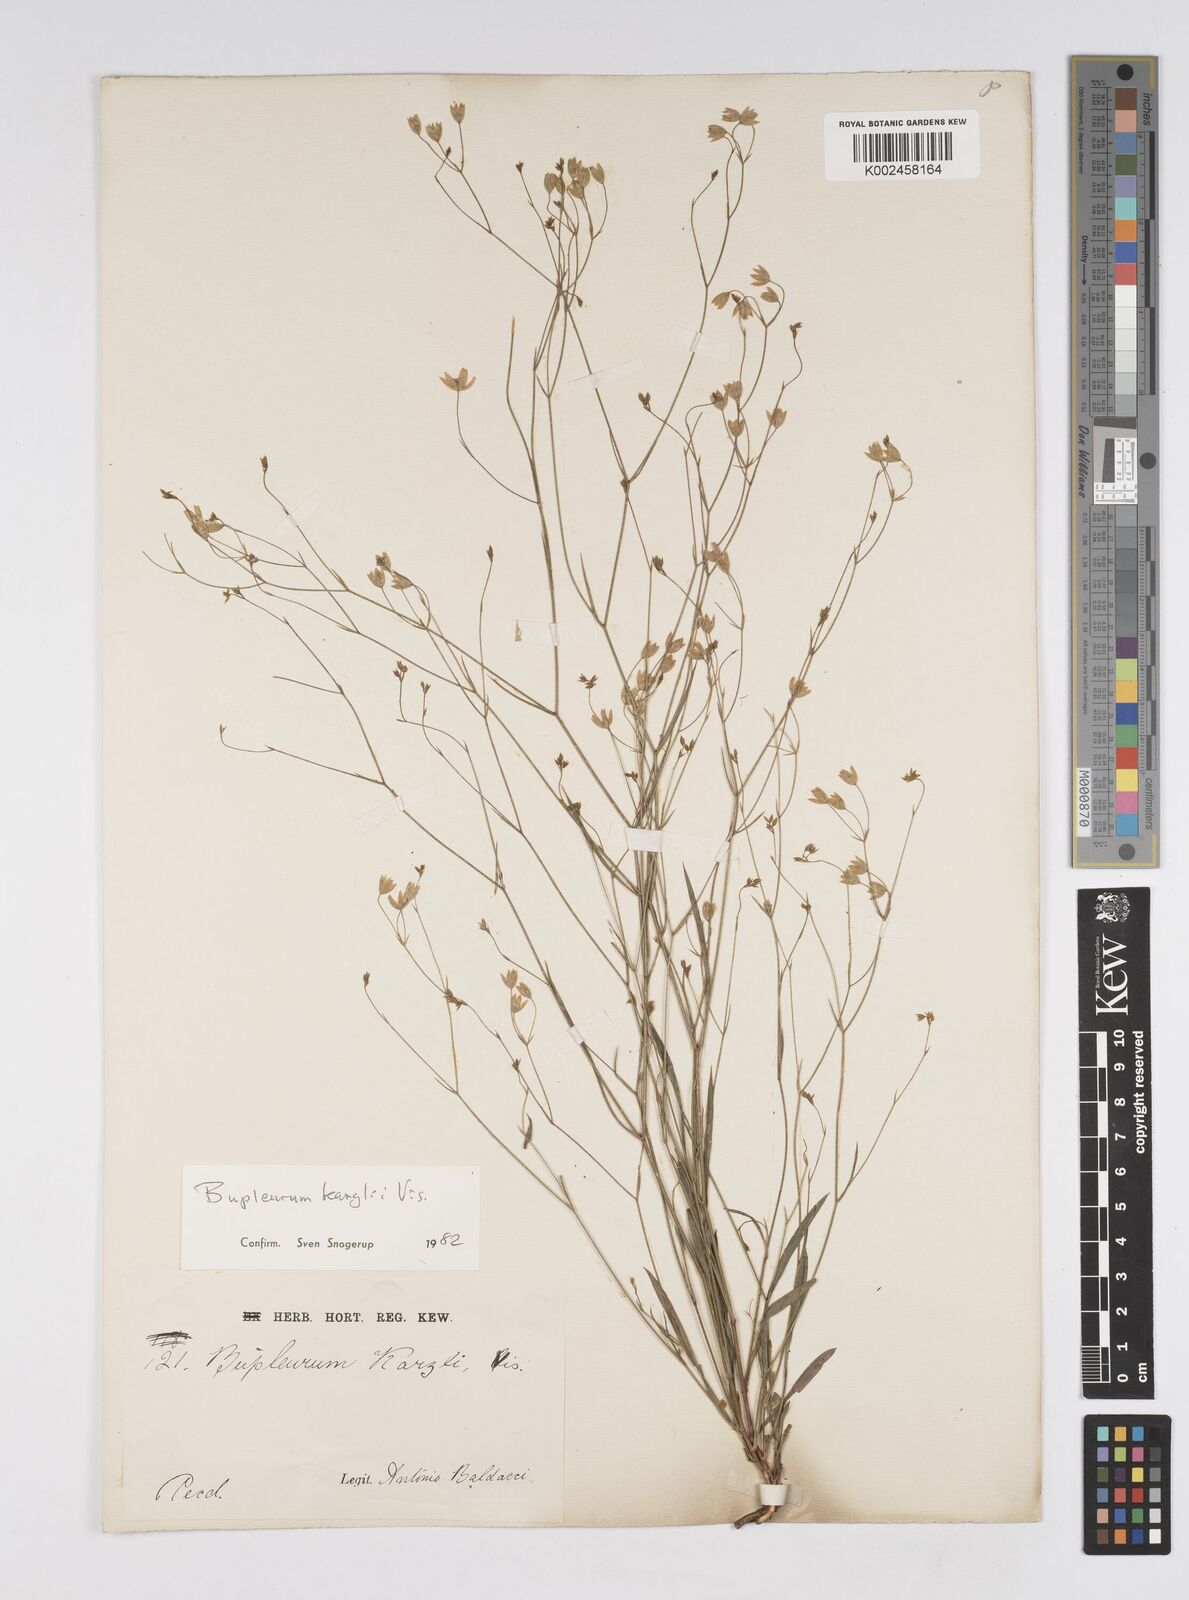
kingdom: Plantae
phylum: Tracheophyta
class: Magnoliopsida
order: Apiales
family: Apiaceae
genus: Bupleurum
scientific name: Bupleurum karglii
